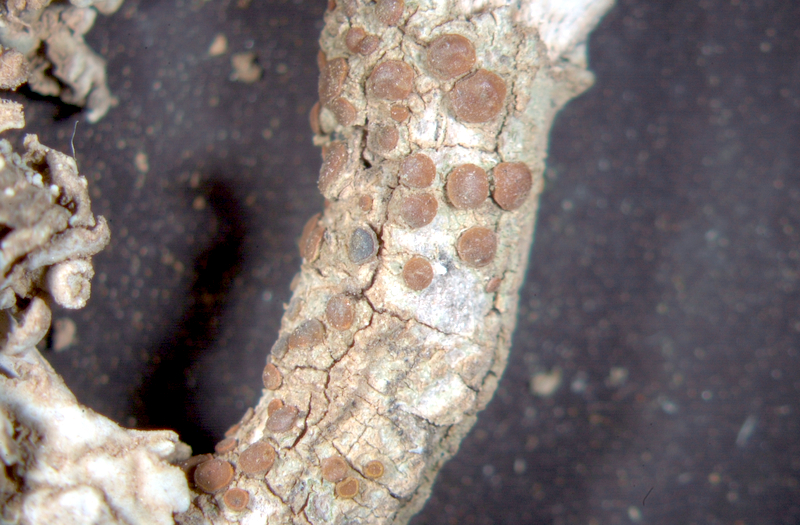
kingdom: Fungi
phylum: Ascomycota
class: Lecanoromycetes
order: Teloschistales
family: Teloschistaceae
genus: Blastenia
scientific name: Blastenia hungarica
